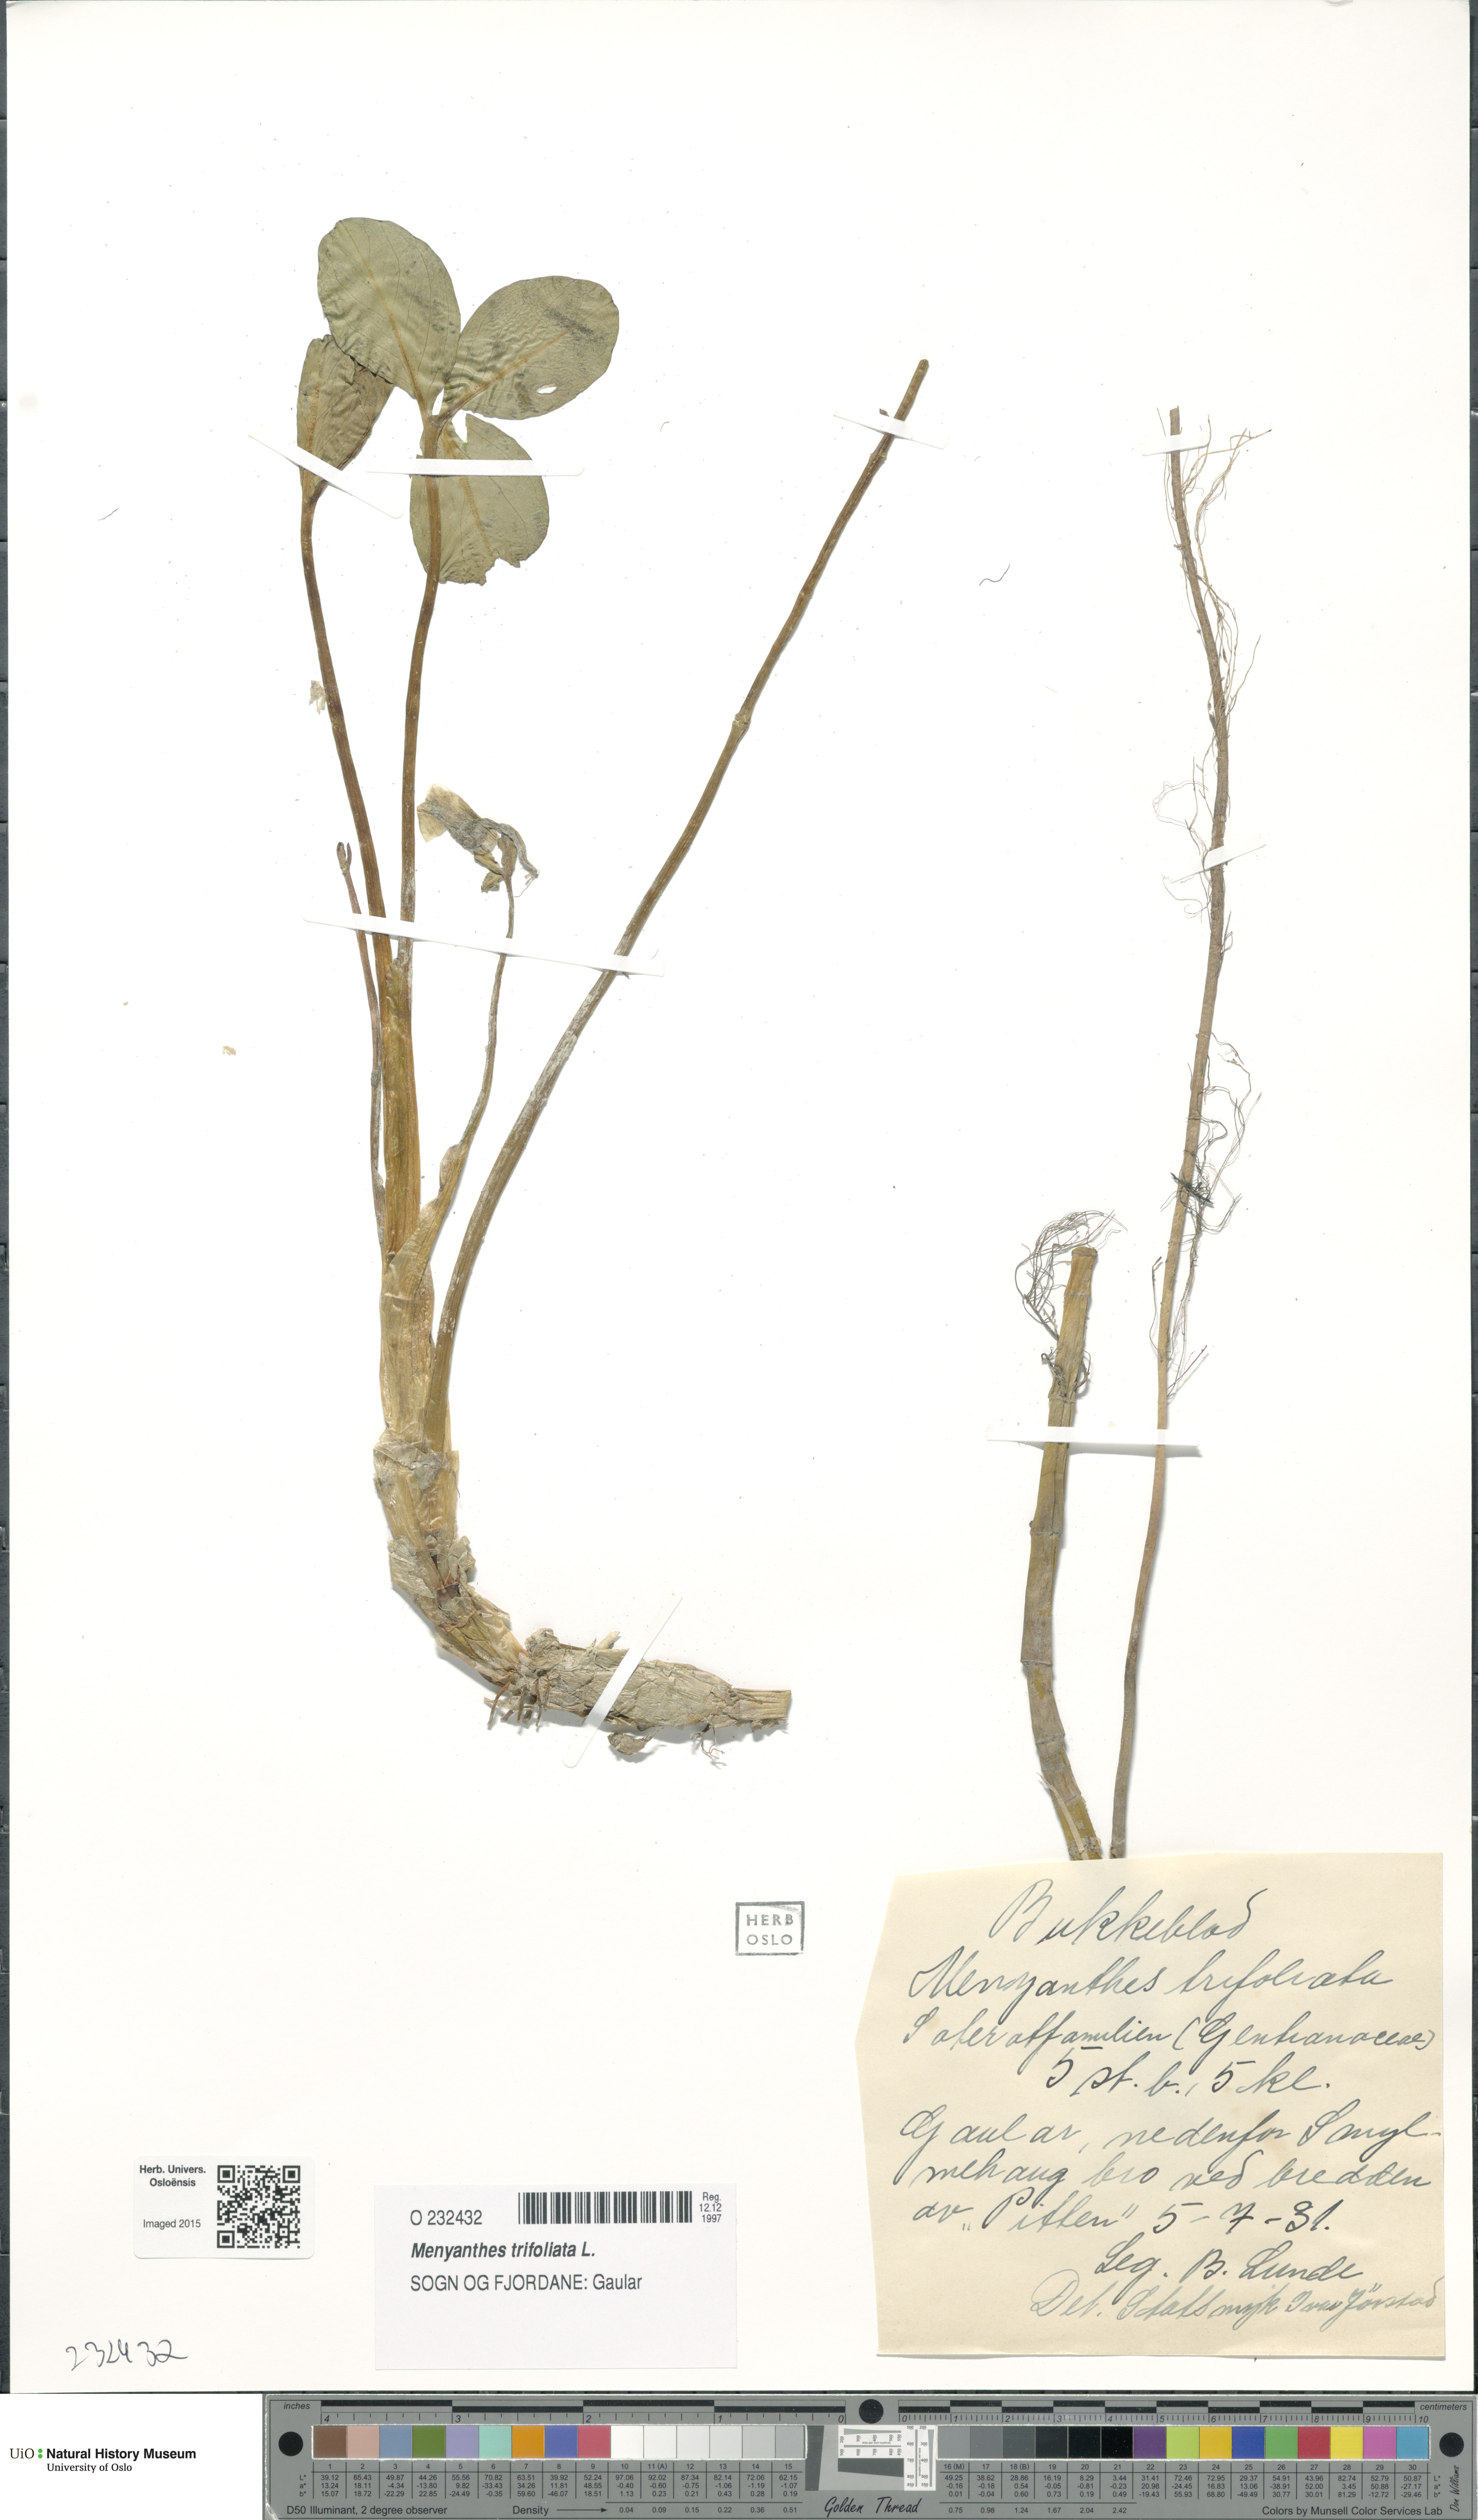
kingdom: Plantae
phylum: Tracheophyta
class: Magnoliopsida
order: Asterales
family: Menyanthaceae
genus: Menyanthes
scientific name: Menyanthes trifoliata
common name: Bogbean
